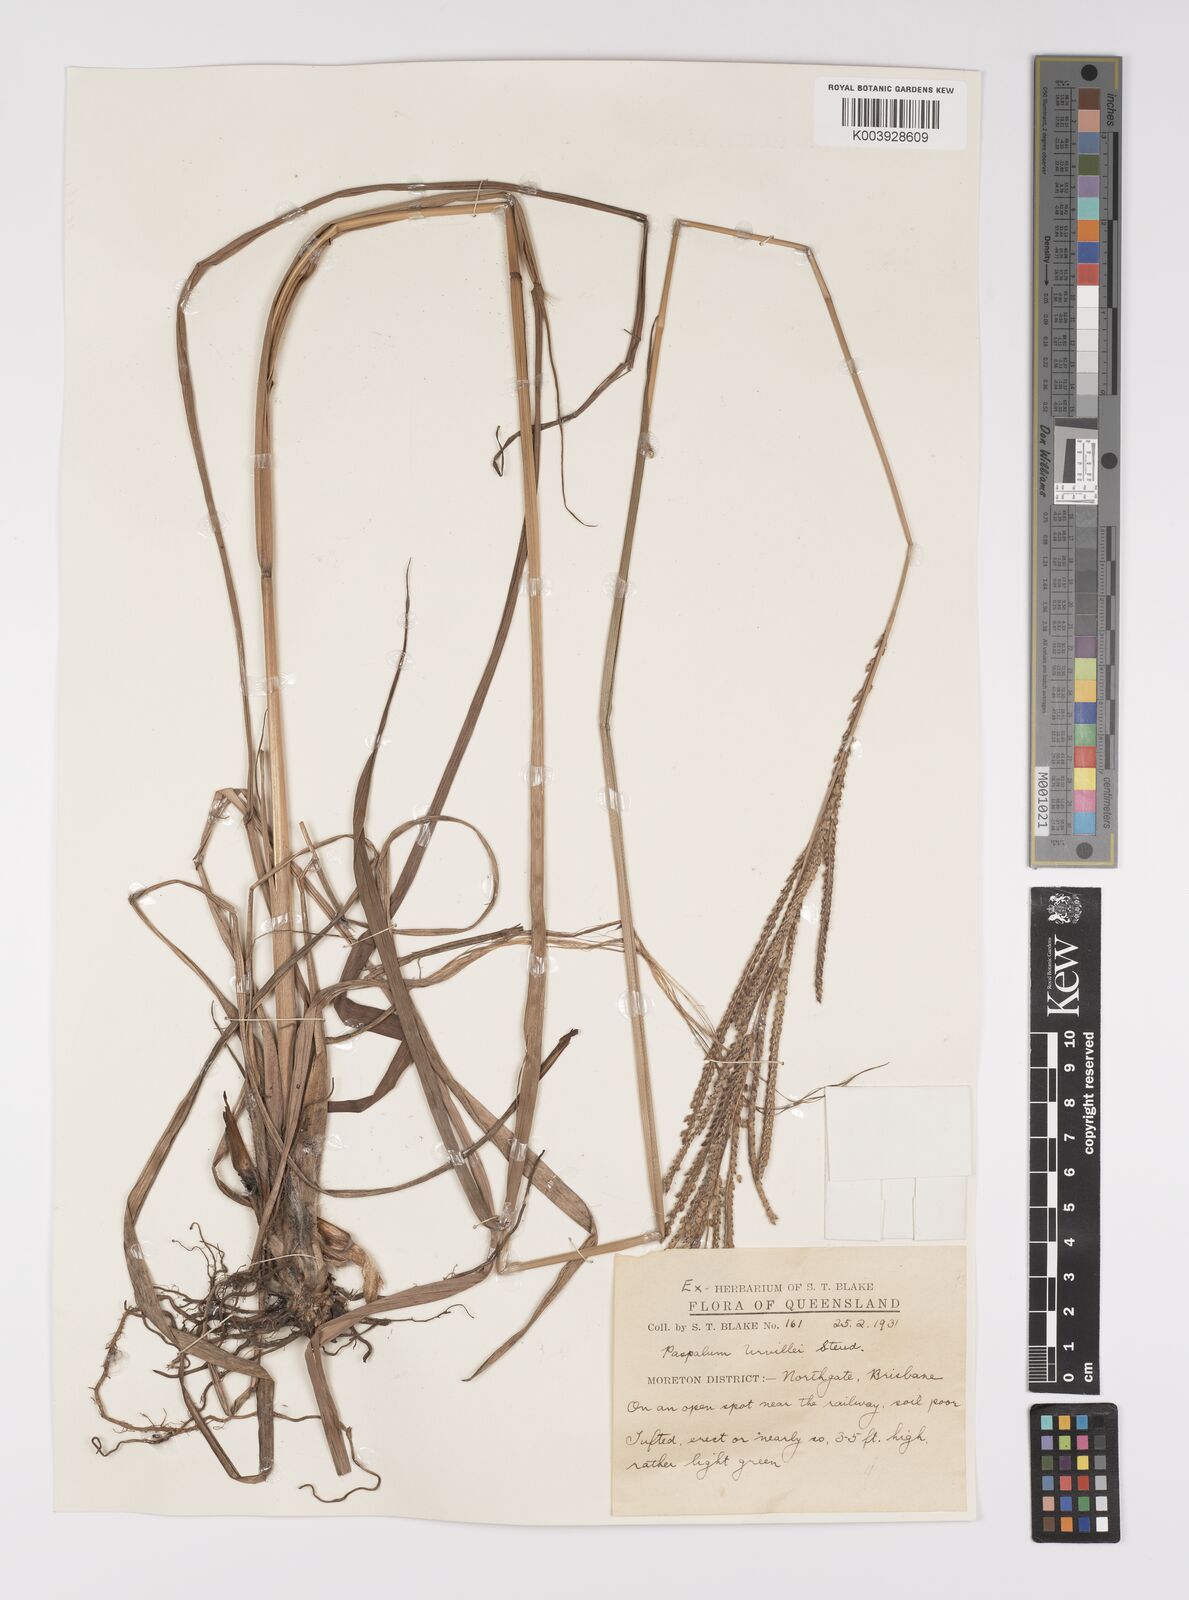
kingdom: Plantae
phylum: Tracheophyta
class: Liliopsida
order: Poales
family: Poaceae
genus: Paspalum
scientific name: Paspalum urvillei
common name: Vasey's grass
